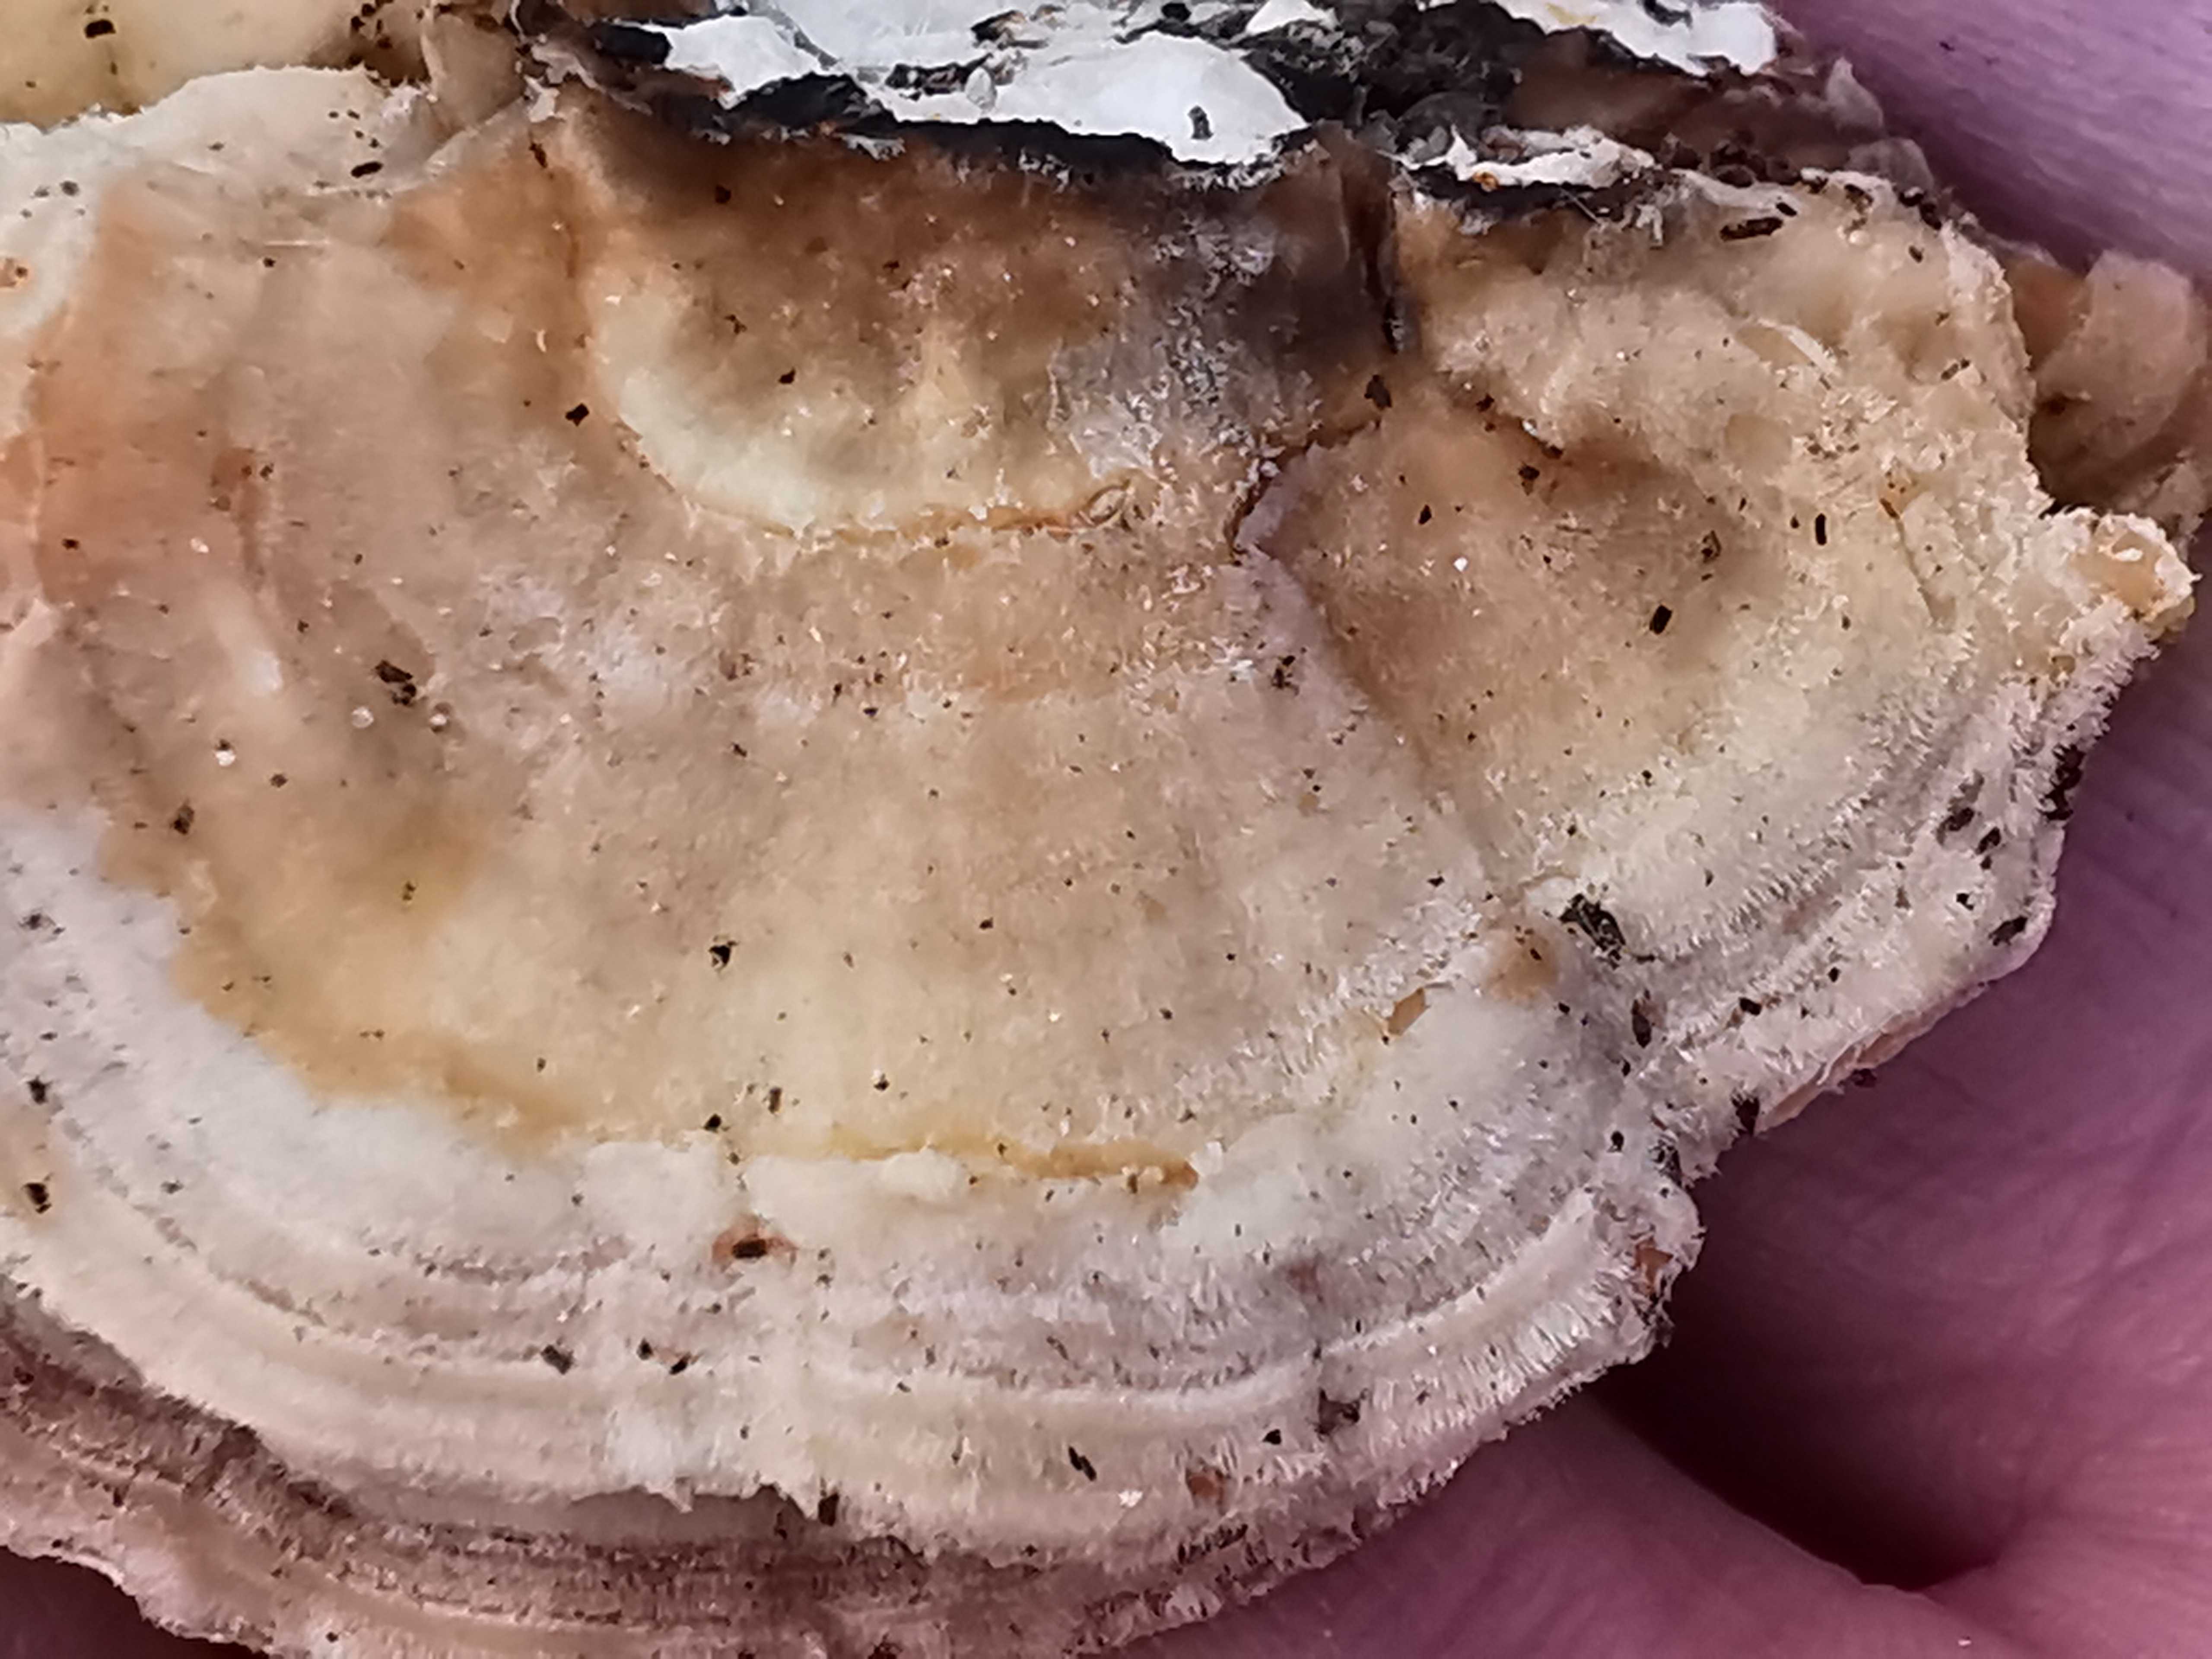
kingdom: Fungi
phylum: Basidiomycota
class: Agaricomycetes
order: Polyporales
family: Polyporaceae
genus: Trametes
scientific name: Trametes
